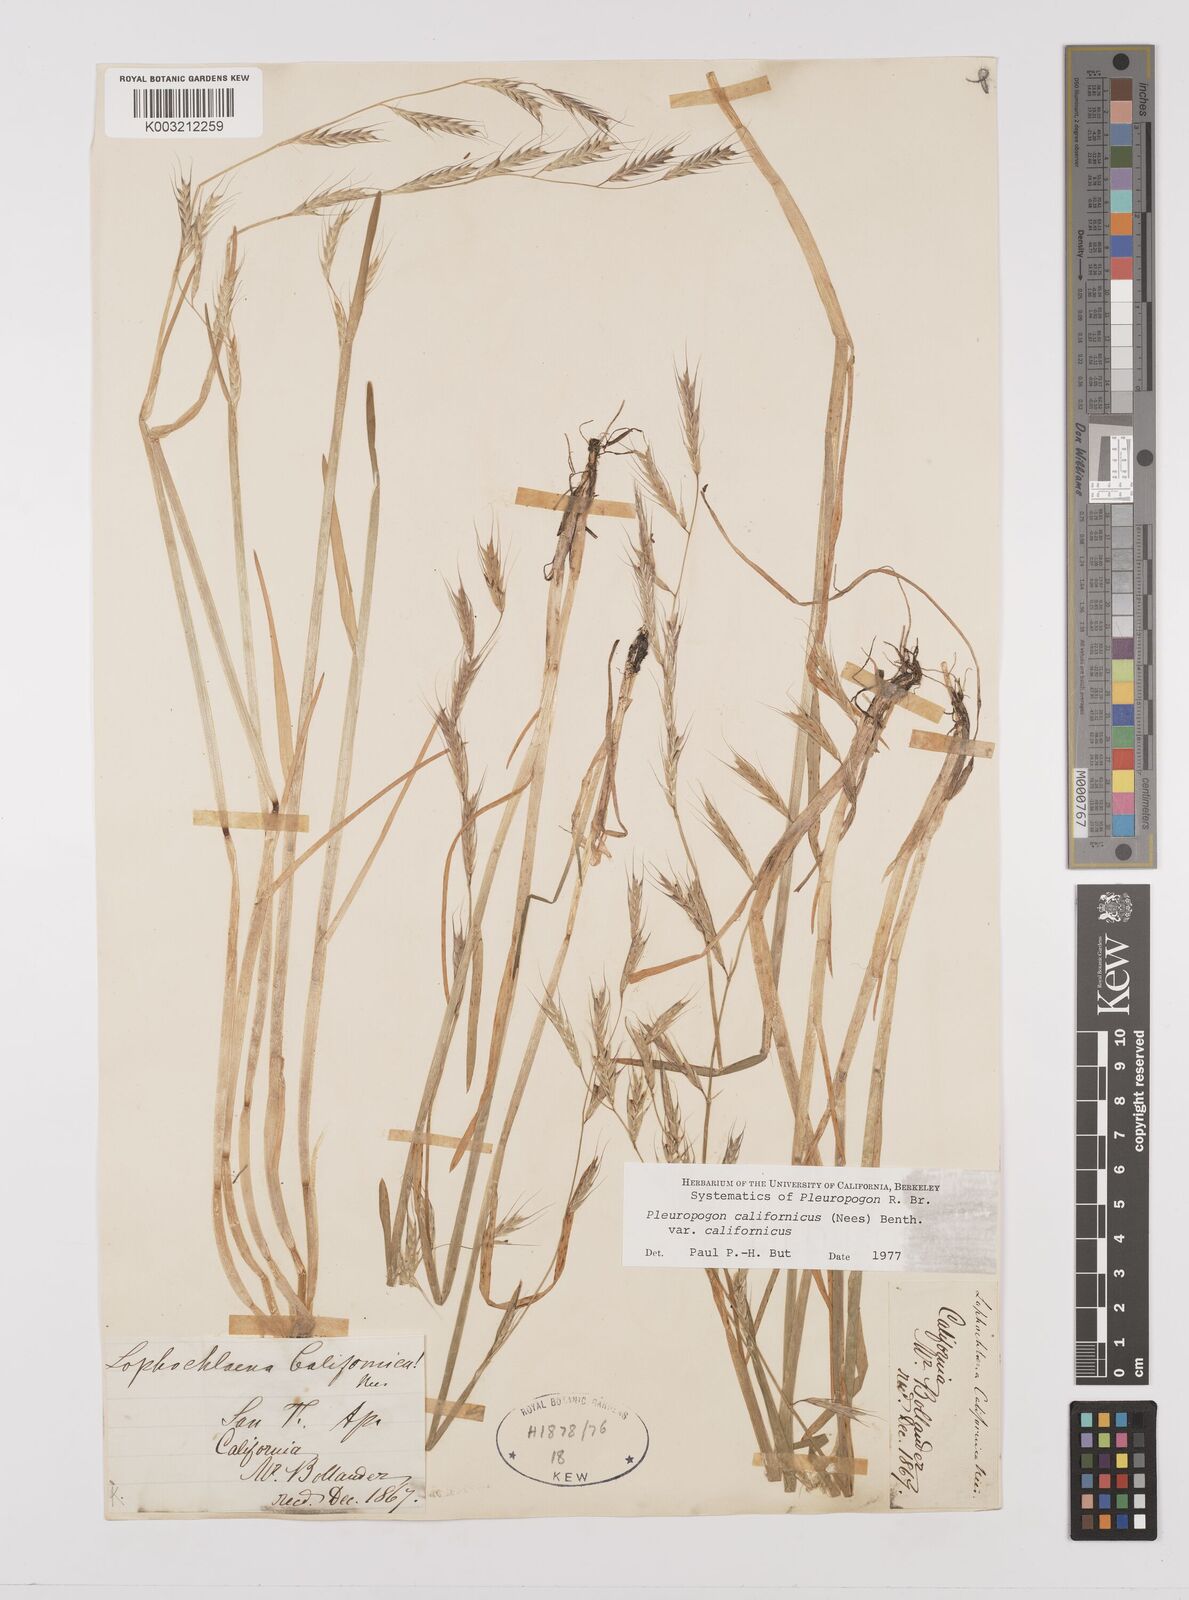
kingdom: Plantae
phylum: Tracheophyta
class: Liliopsida
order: Poales
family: Poaceae
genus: Pleuropogon
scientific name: Pleuropogon californicus
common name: California semaphore grass
